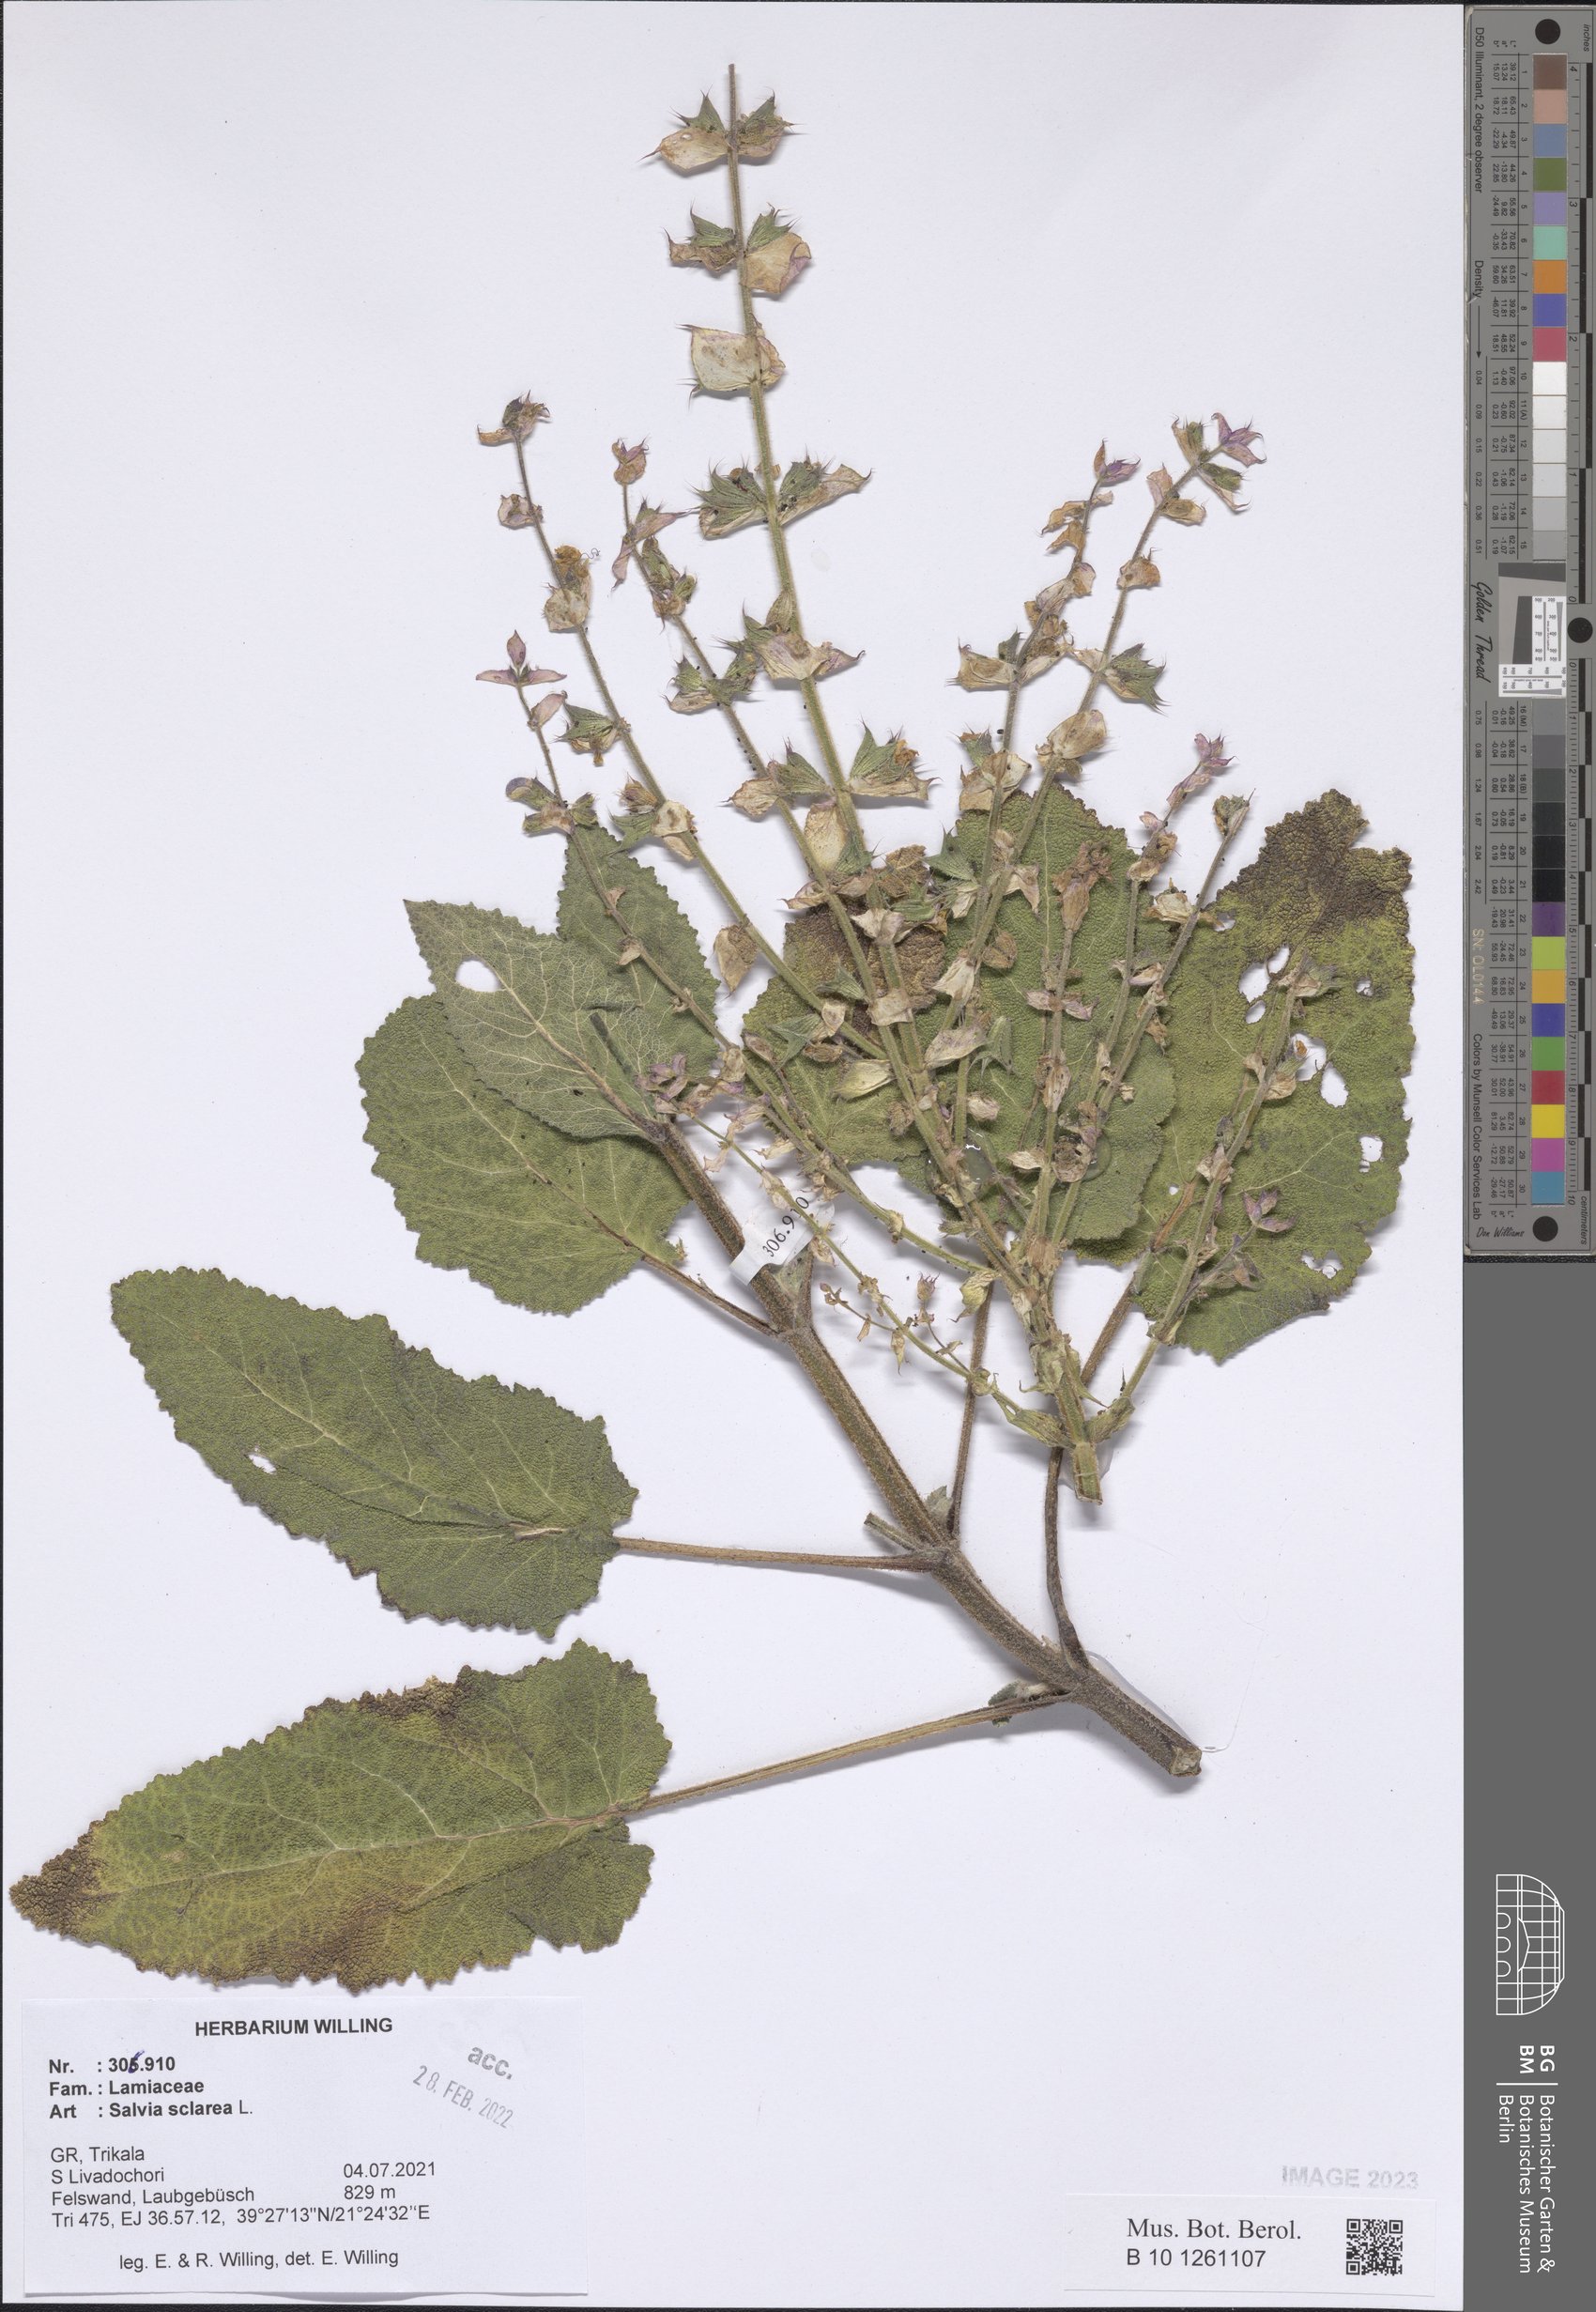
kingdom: Plantae
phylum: Tracheophyta
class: Magnoliopsida
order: Lamiales
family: Lamiaceae
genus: Salvia
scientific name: Salvia sclarea
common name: Clary
